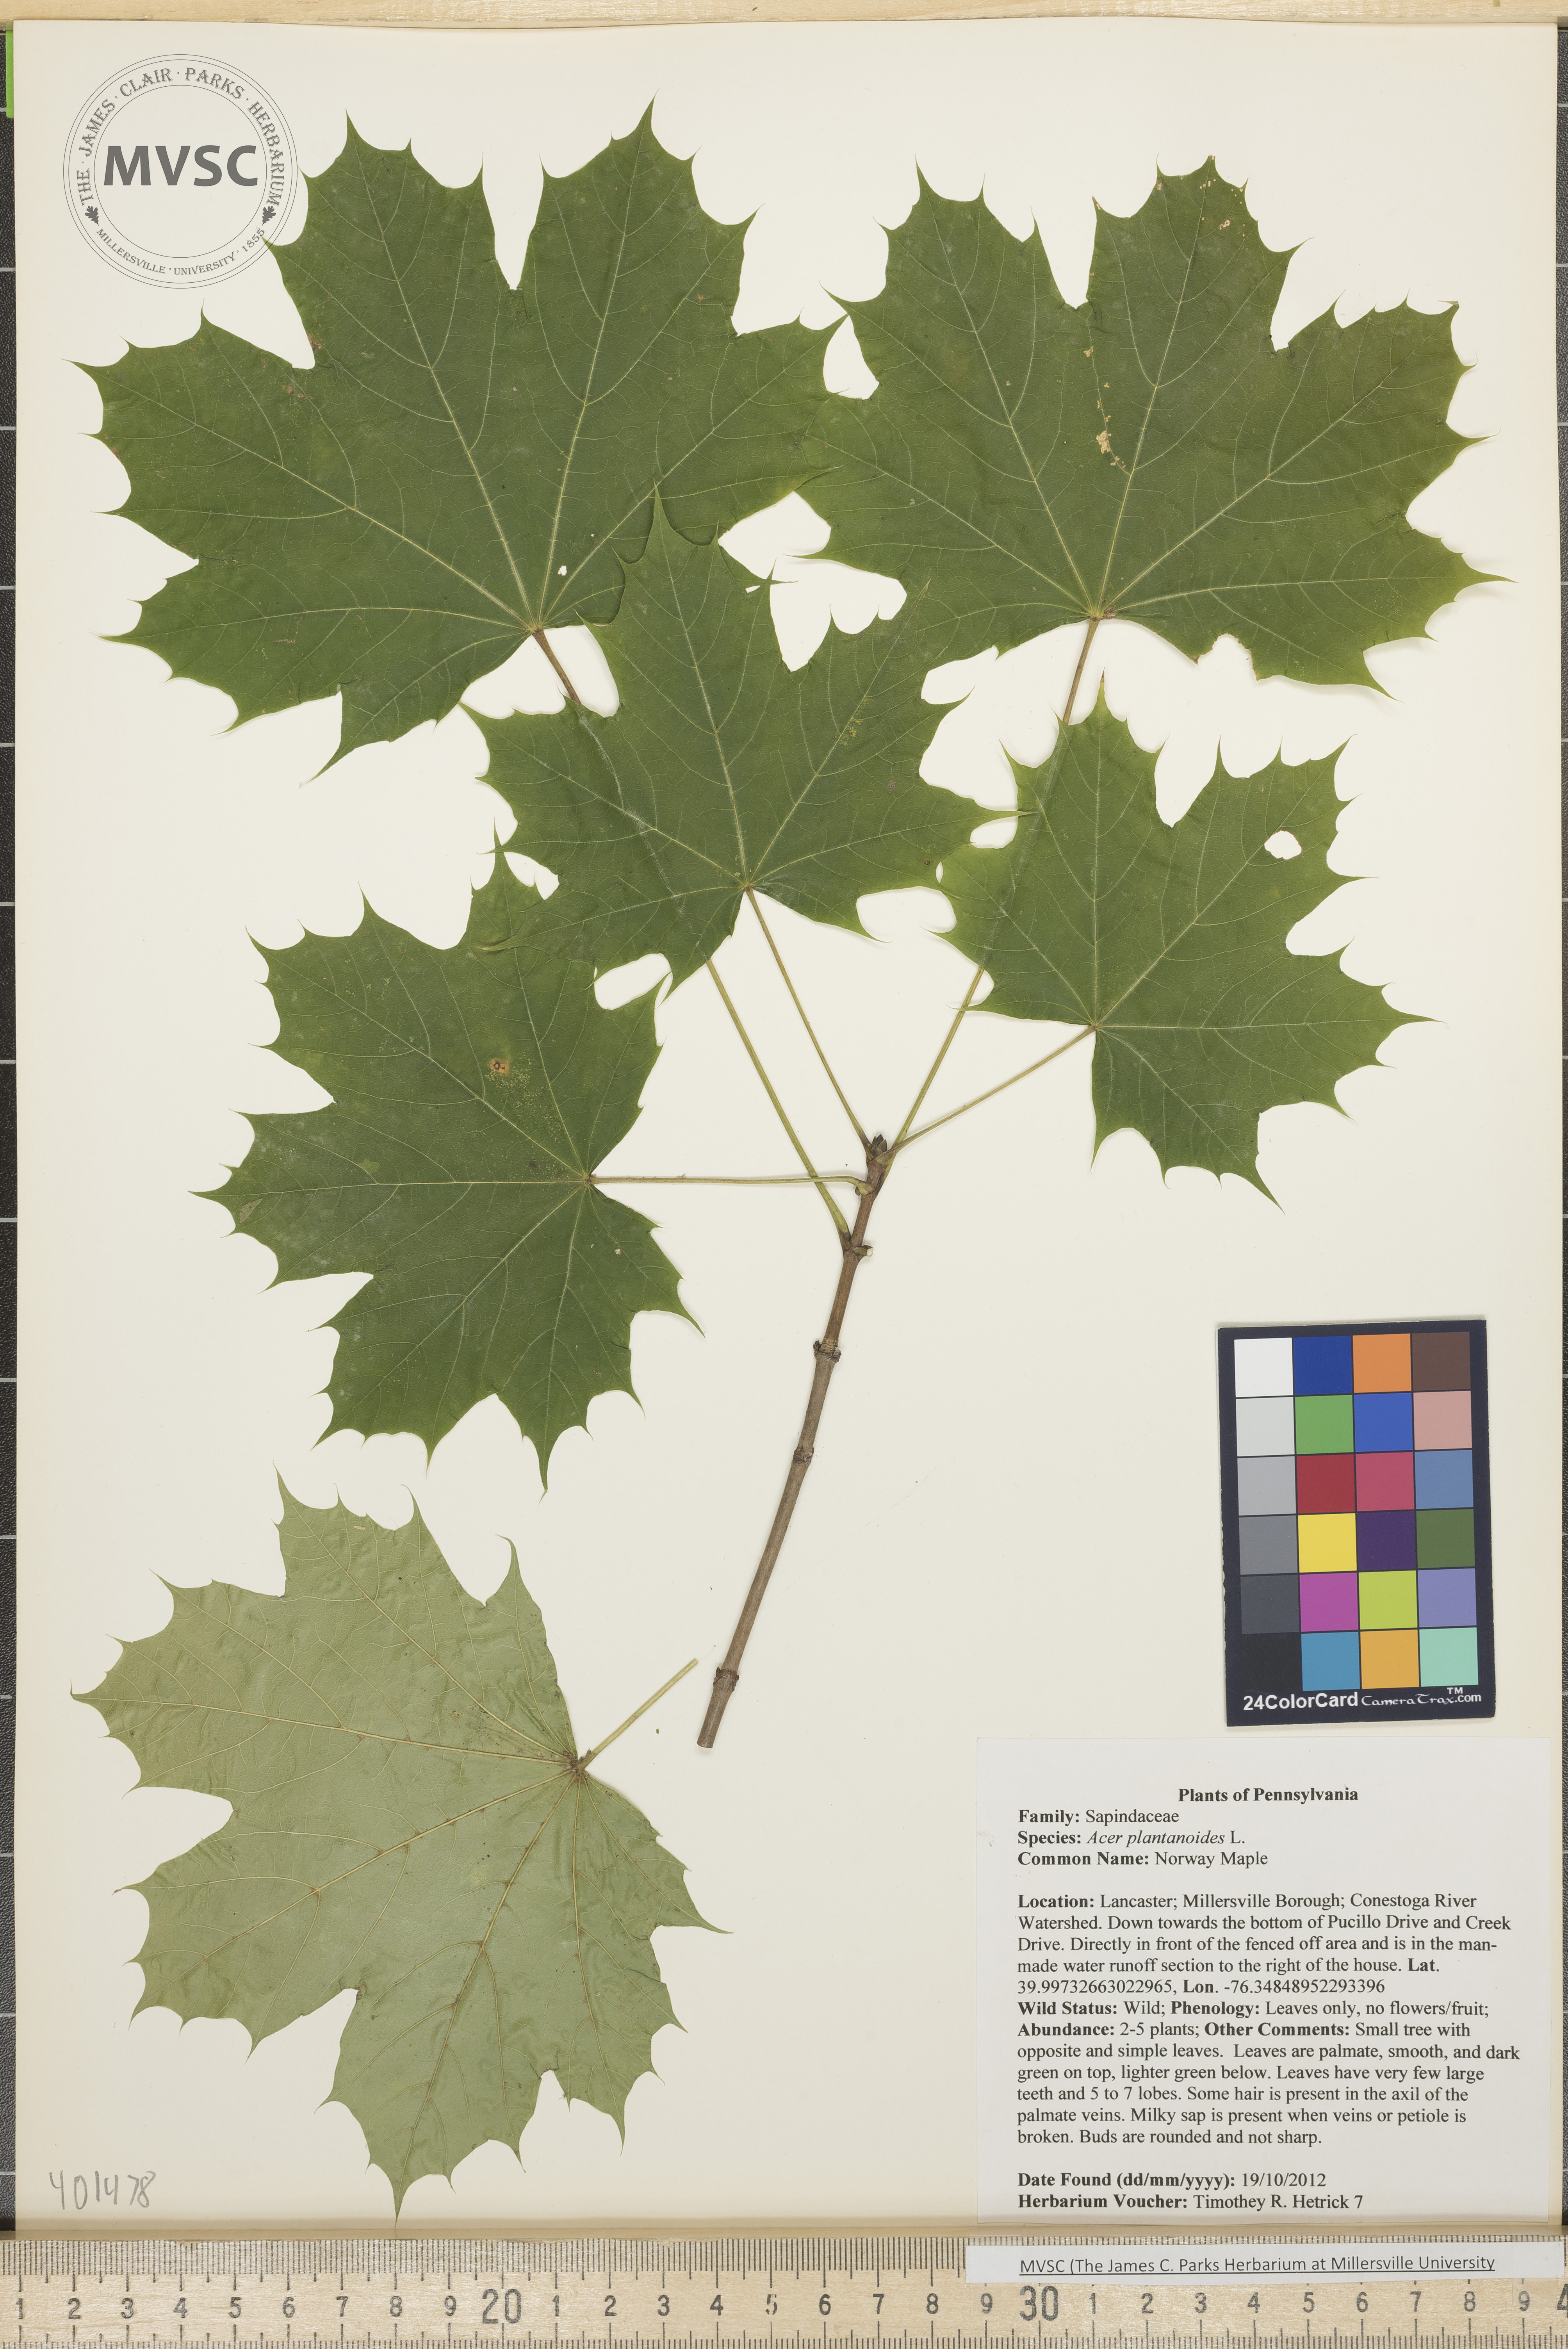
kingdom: Plantae
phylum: Tracheophyta
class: Magnoliopsida
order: Sapindales
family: Sapindaceae
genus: Acer
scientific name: Acer platanoides
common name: Norway Maple
